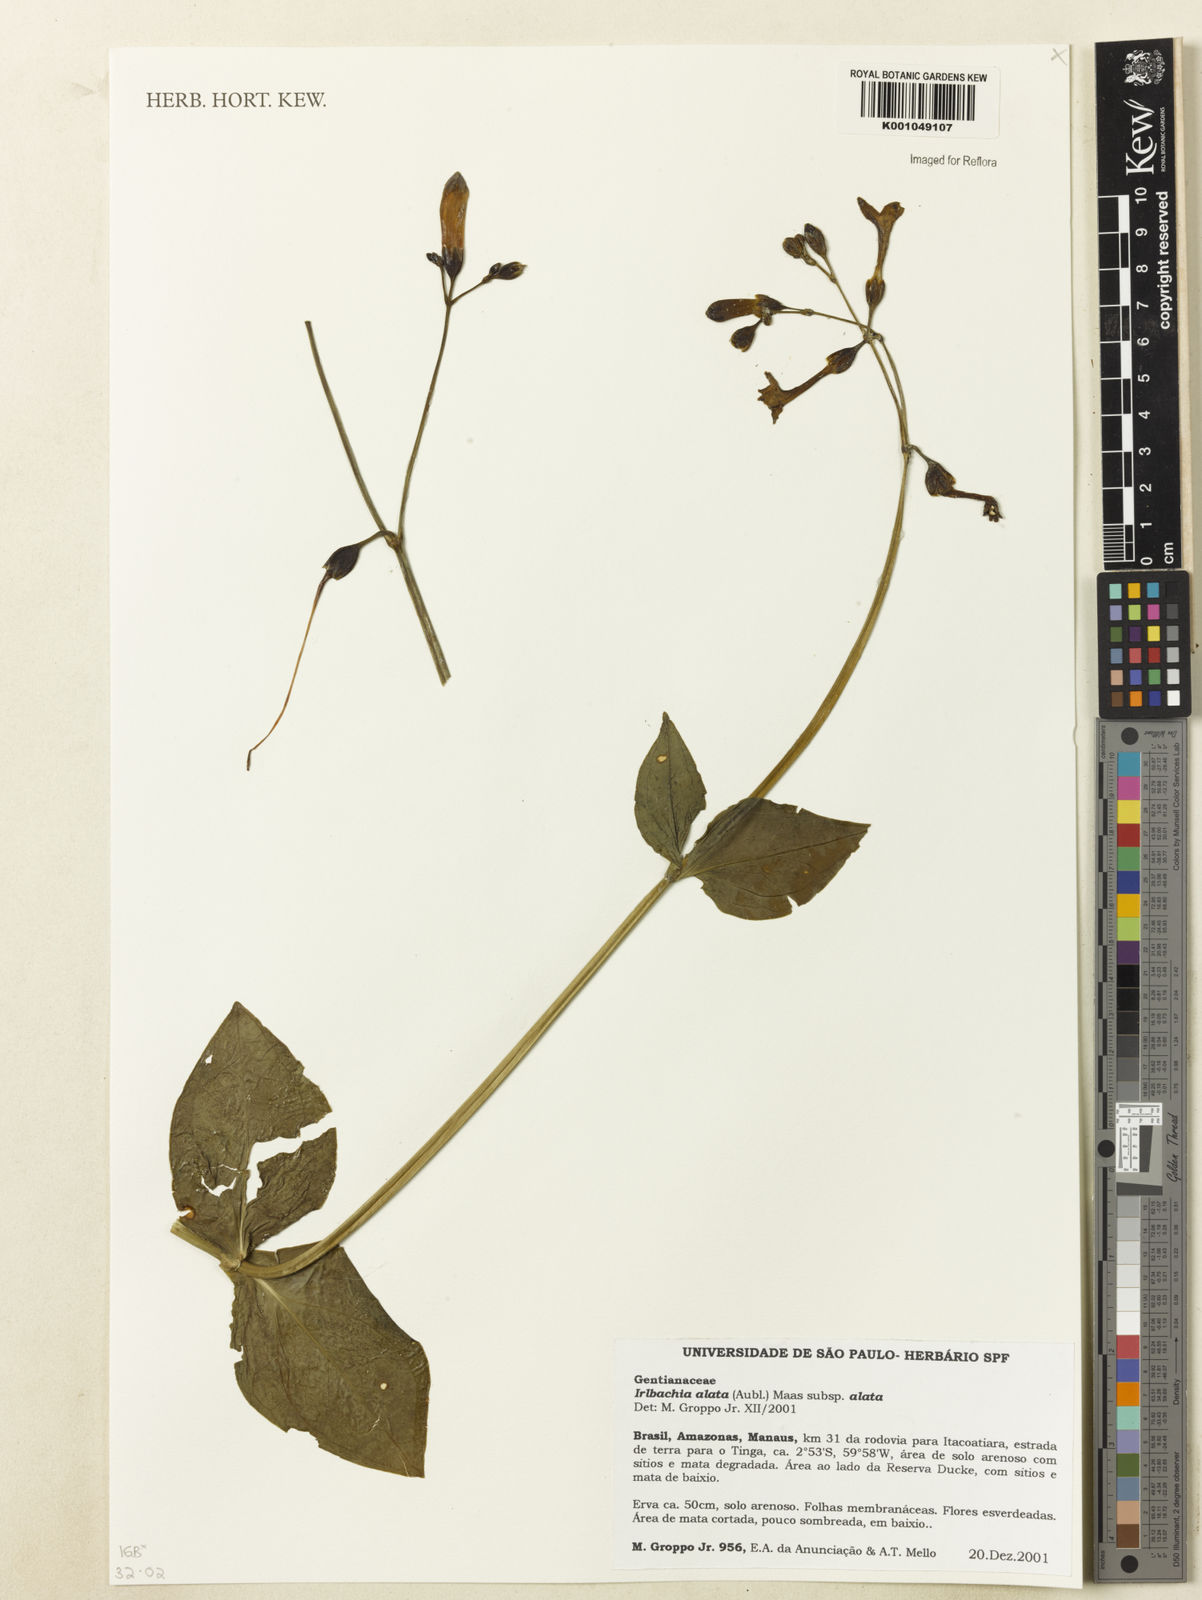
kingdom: Plantae
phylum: Tracheophyta
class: Magnoliopsida
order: Gentianales
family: Gentianaceae
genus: Chelonanthus
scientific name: Chelonanthus alatus
